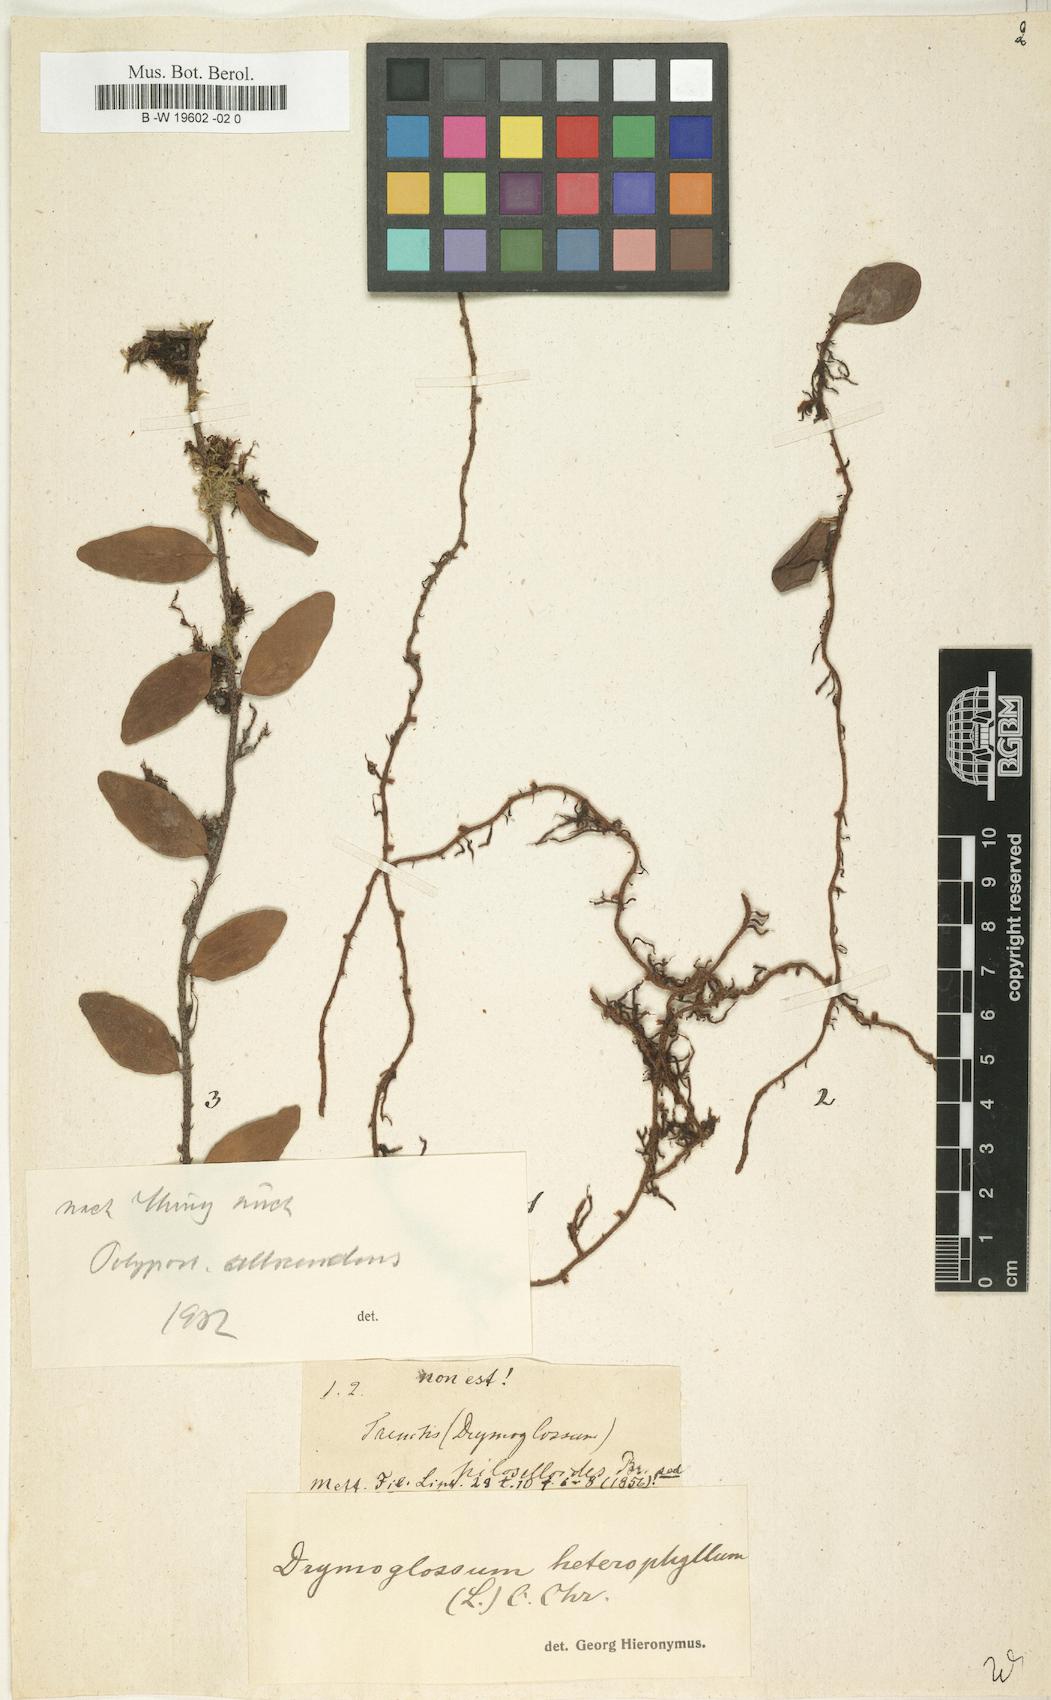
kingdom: Plantae
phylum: Tracheophyta
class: Polypodiopsida
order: Polypodiales
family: Polypodiaceae
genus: Pyrrosia
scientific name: Pyrrosia
